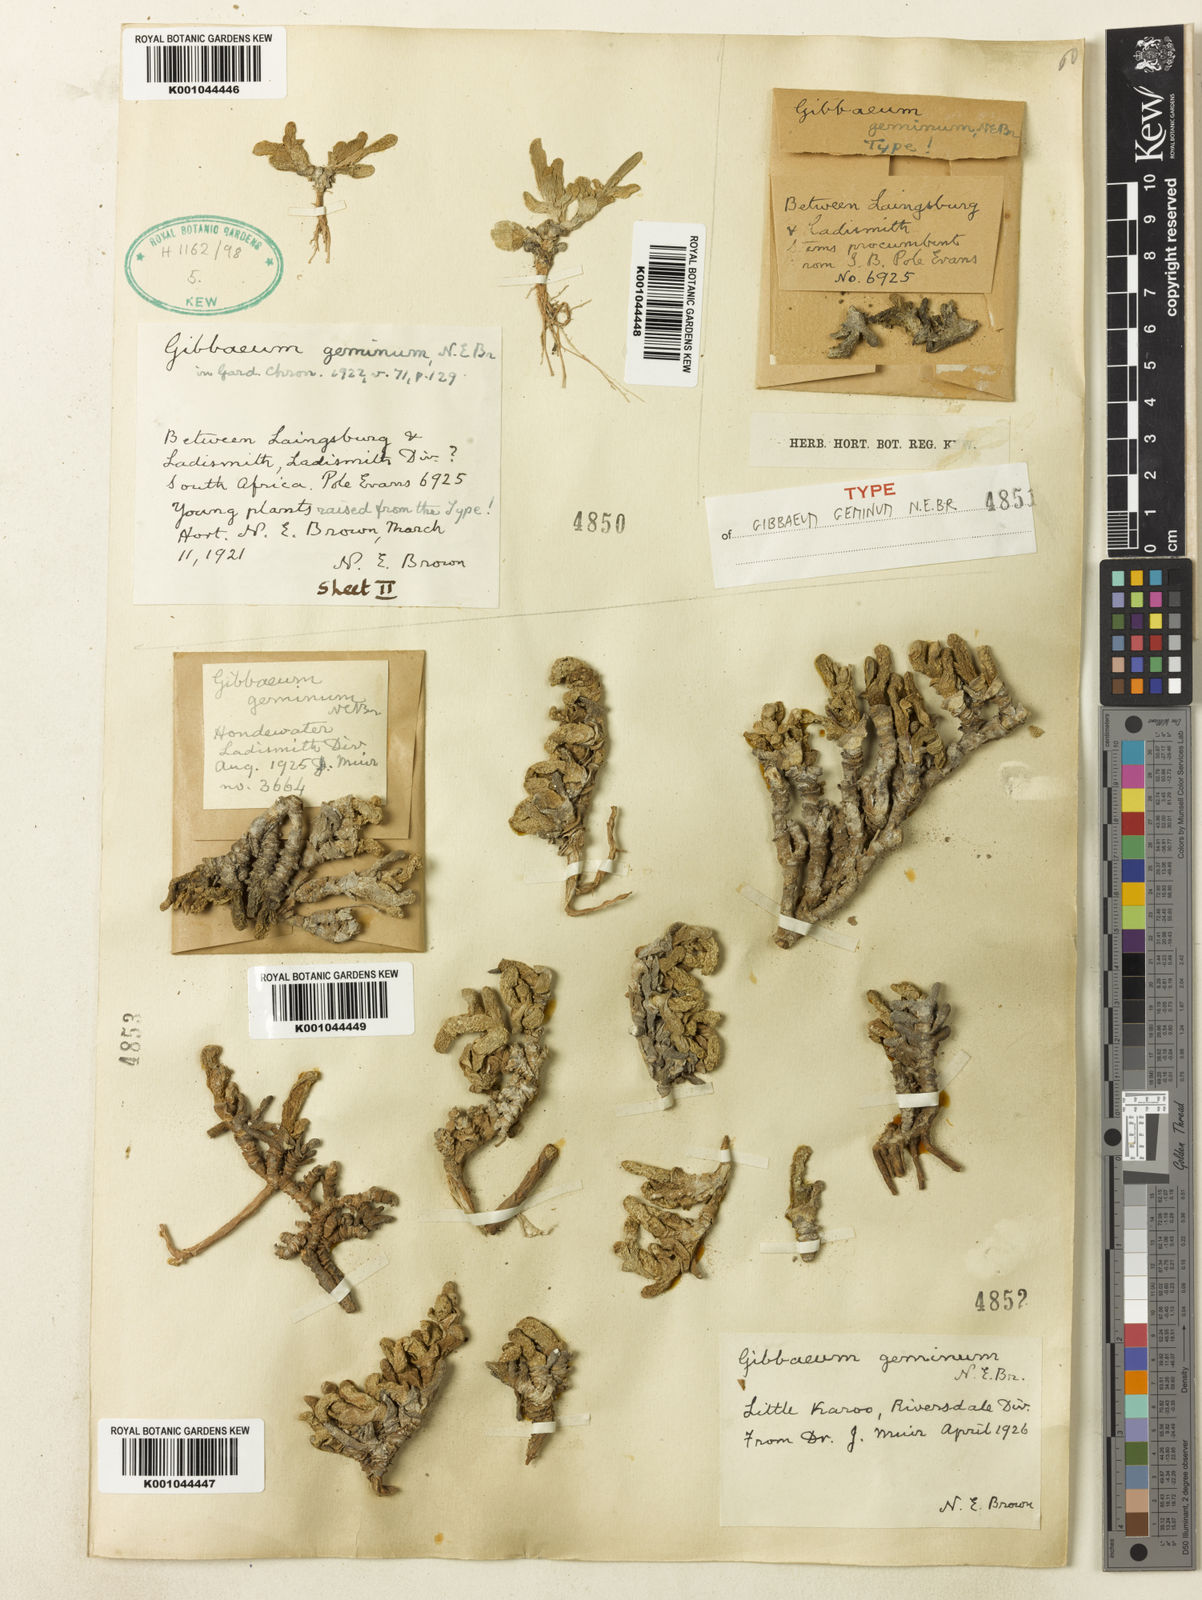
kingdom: Plantae
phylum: Tracheophyta
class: Magnoliopsida
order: Caryophyllales
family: Aizoaceae
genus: Gibbaeum
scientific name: Gibbaeum geminum
